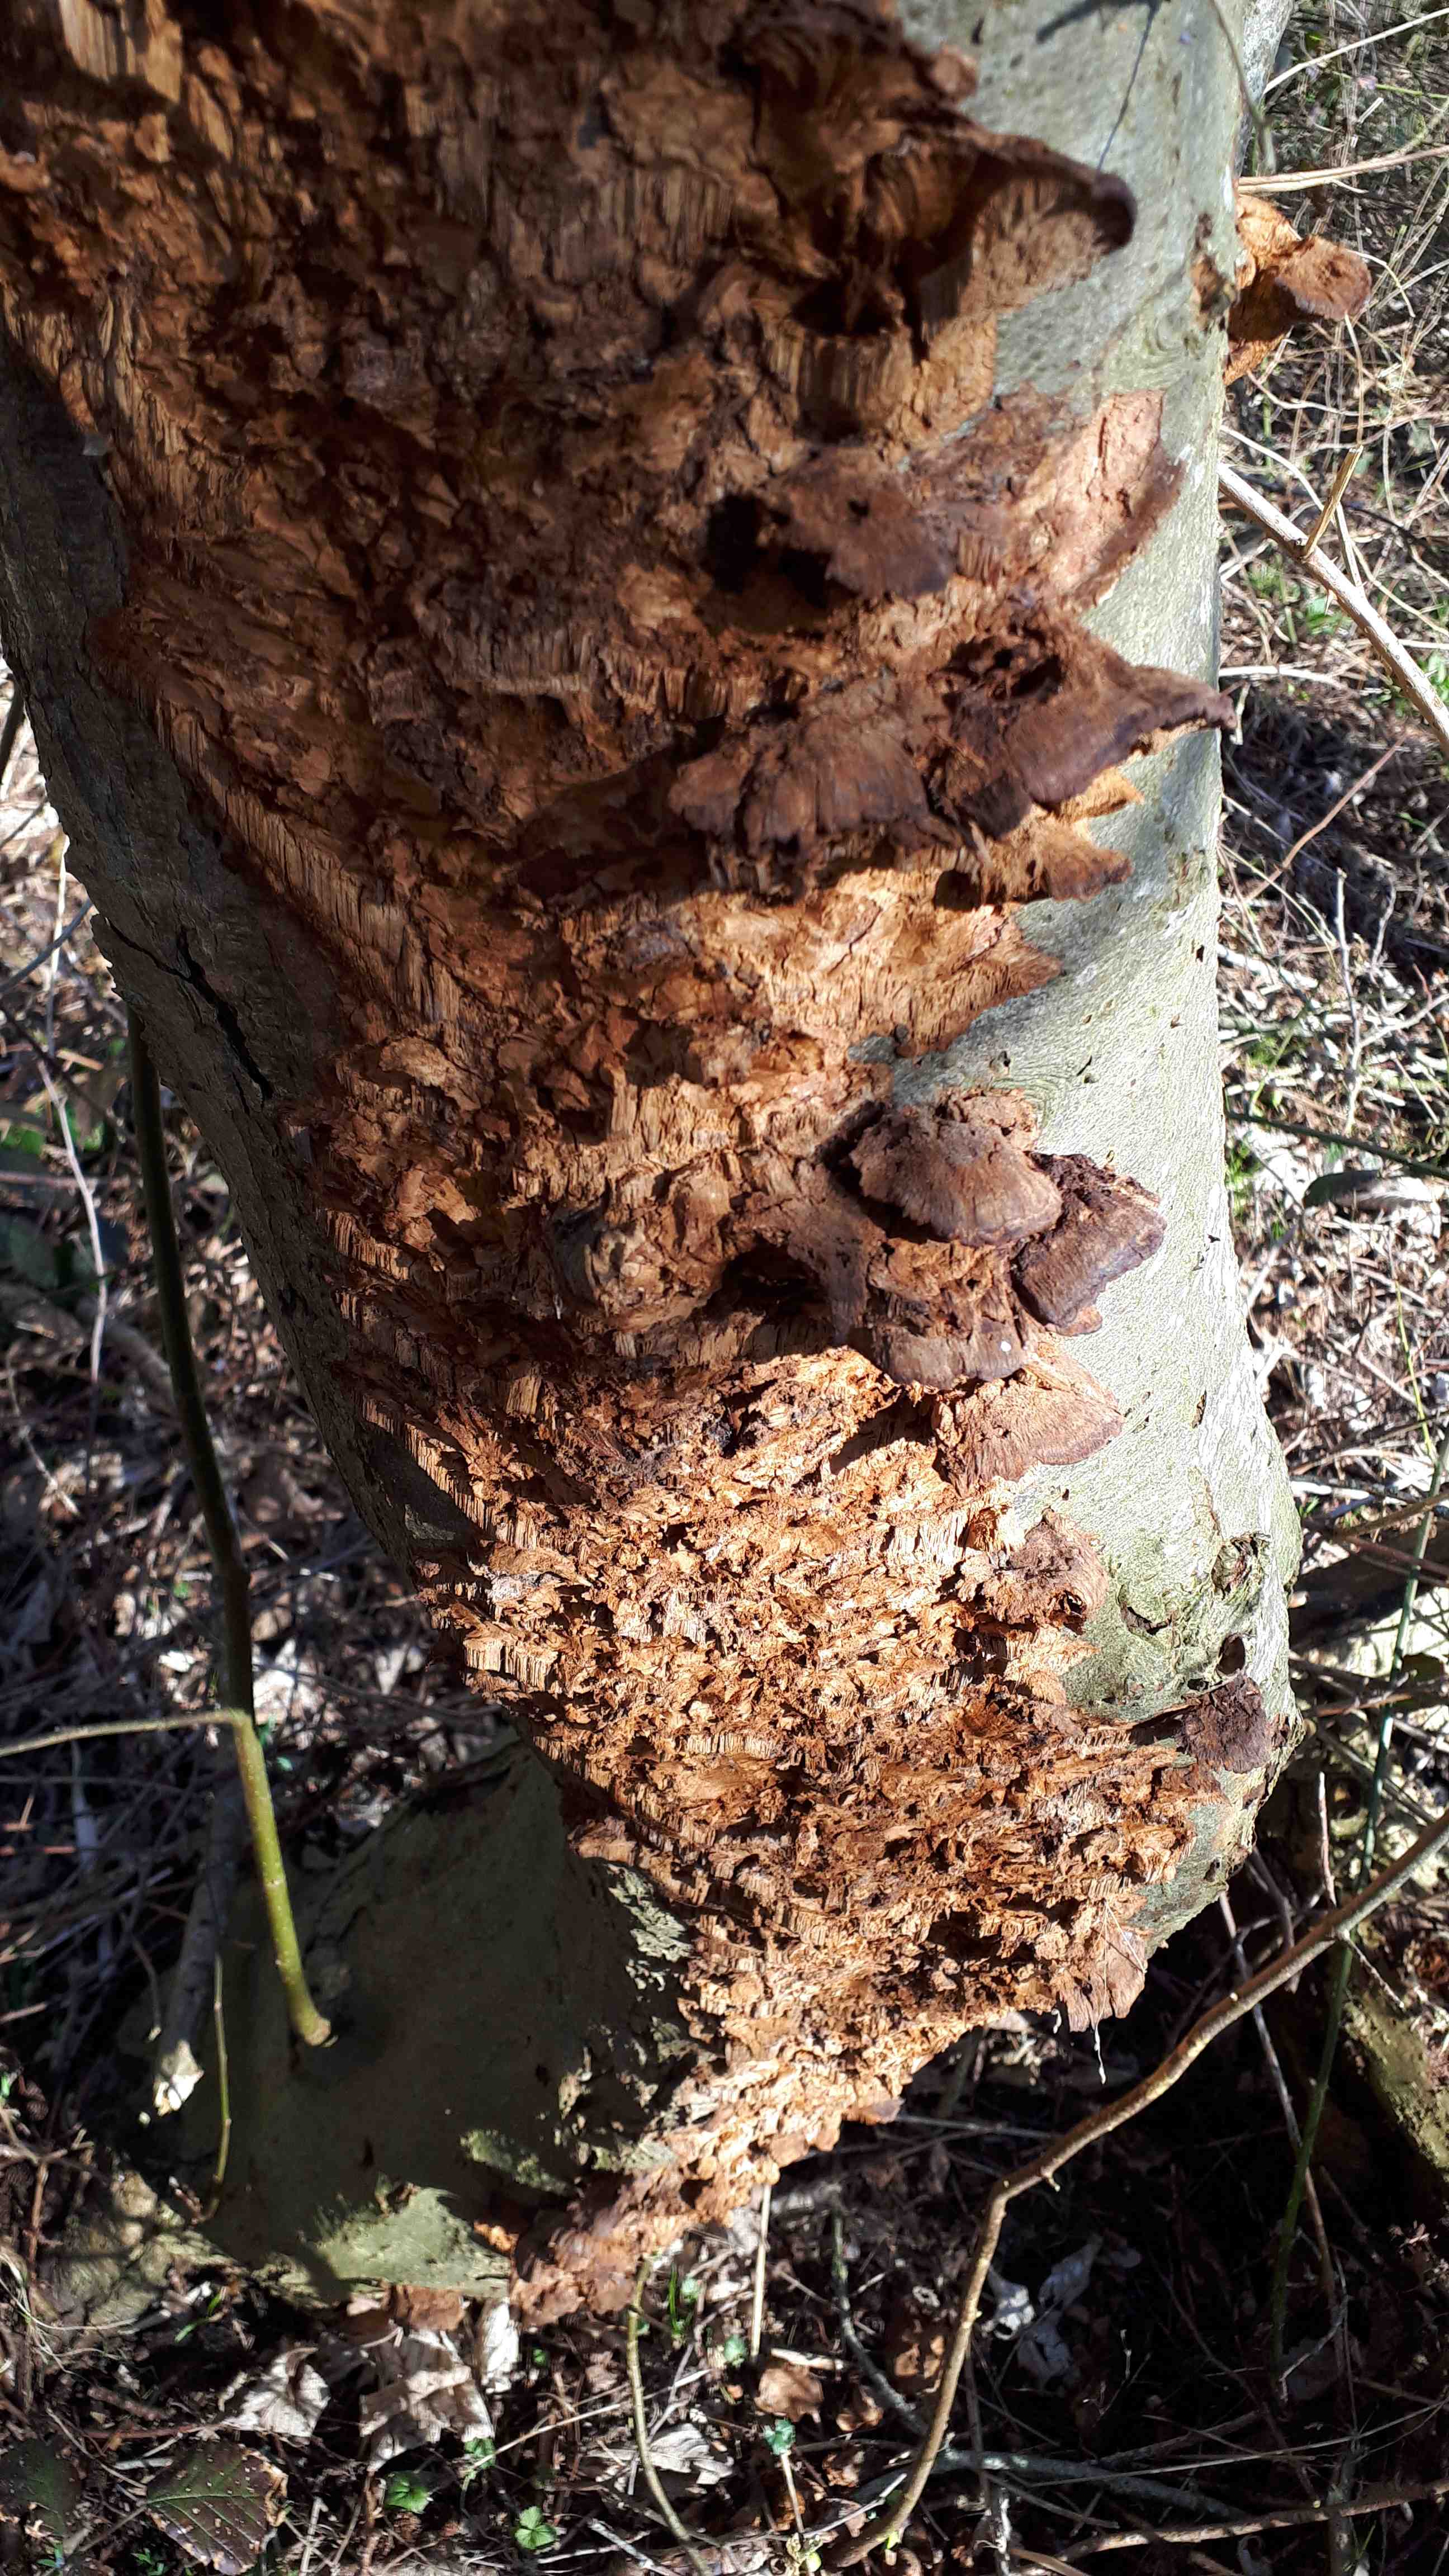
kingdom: Fungi
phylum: Basidiomycota
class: Agaricomycetes
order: Hymenochaetales
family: Hymenochaetaceae
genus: Xanthoporia
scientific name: Xanthoporia radiata
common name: elle-spejlporesvamp
